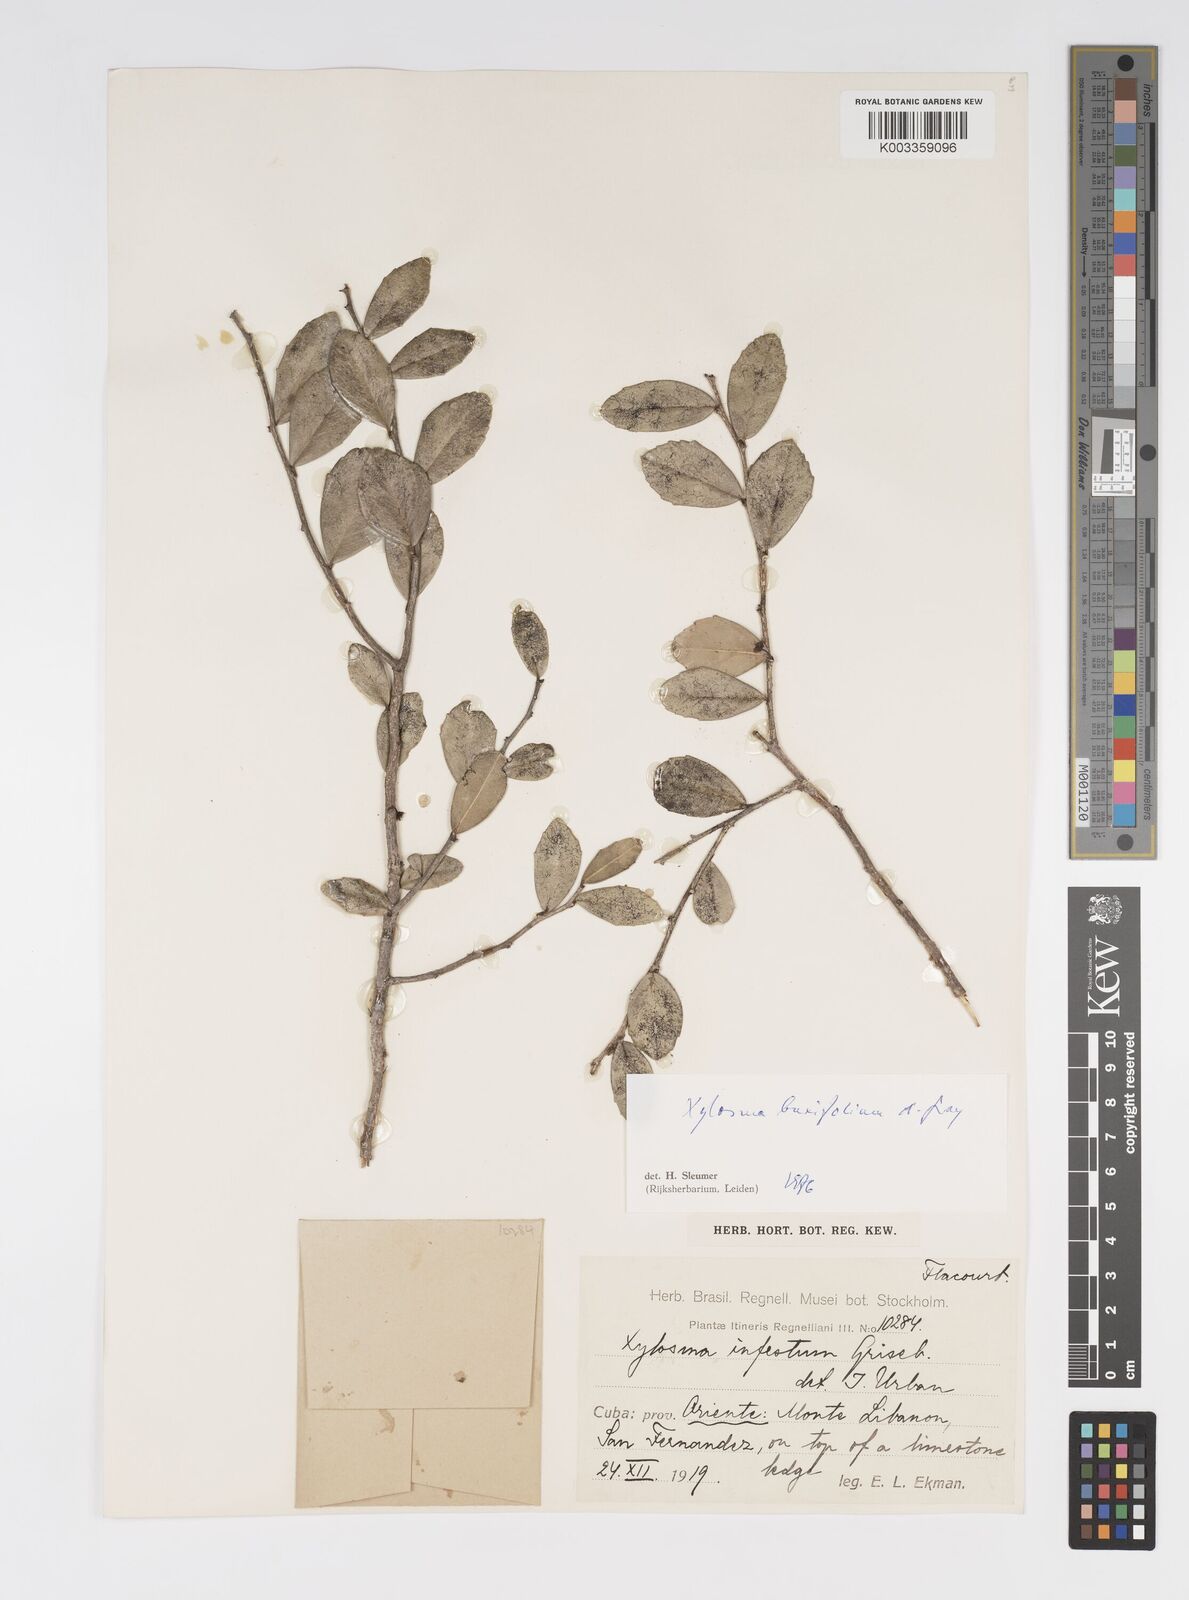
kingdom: Plantae
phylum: Tracheophyta
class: Magnoliopsida
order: Malpighiales
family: Salicaceae
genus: Xylosma
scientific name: Xylosma buxifolia
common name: Cockspur
